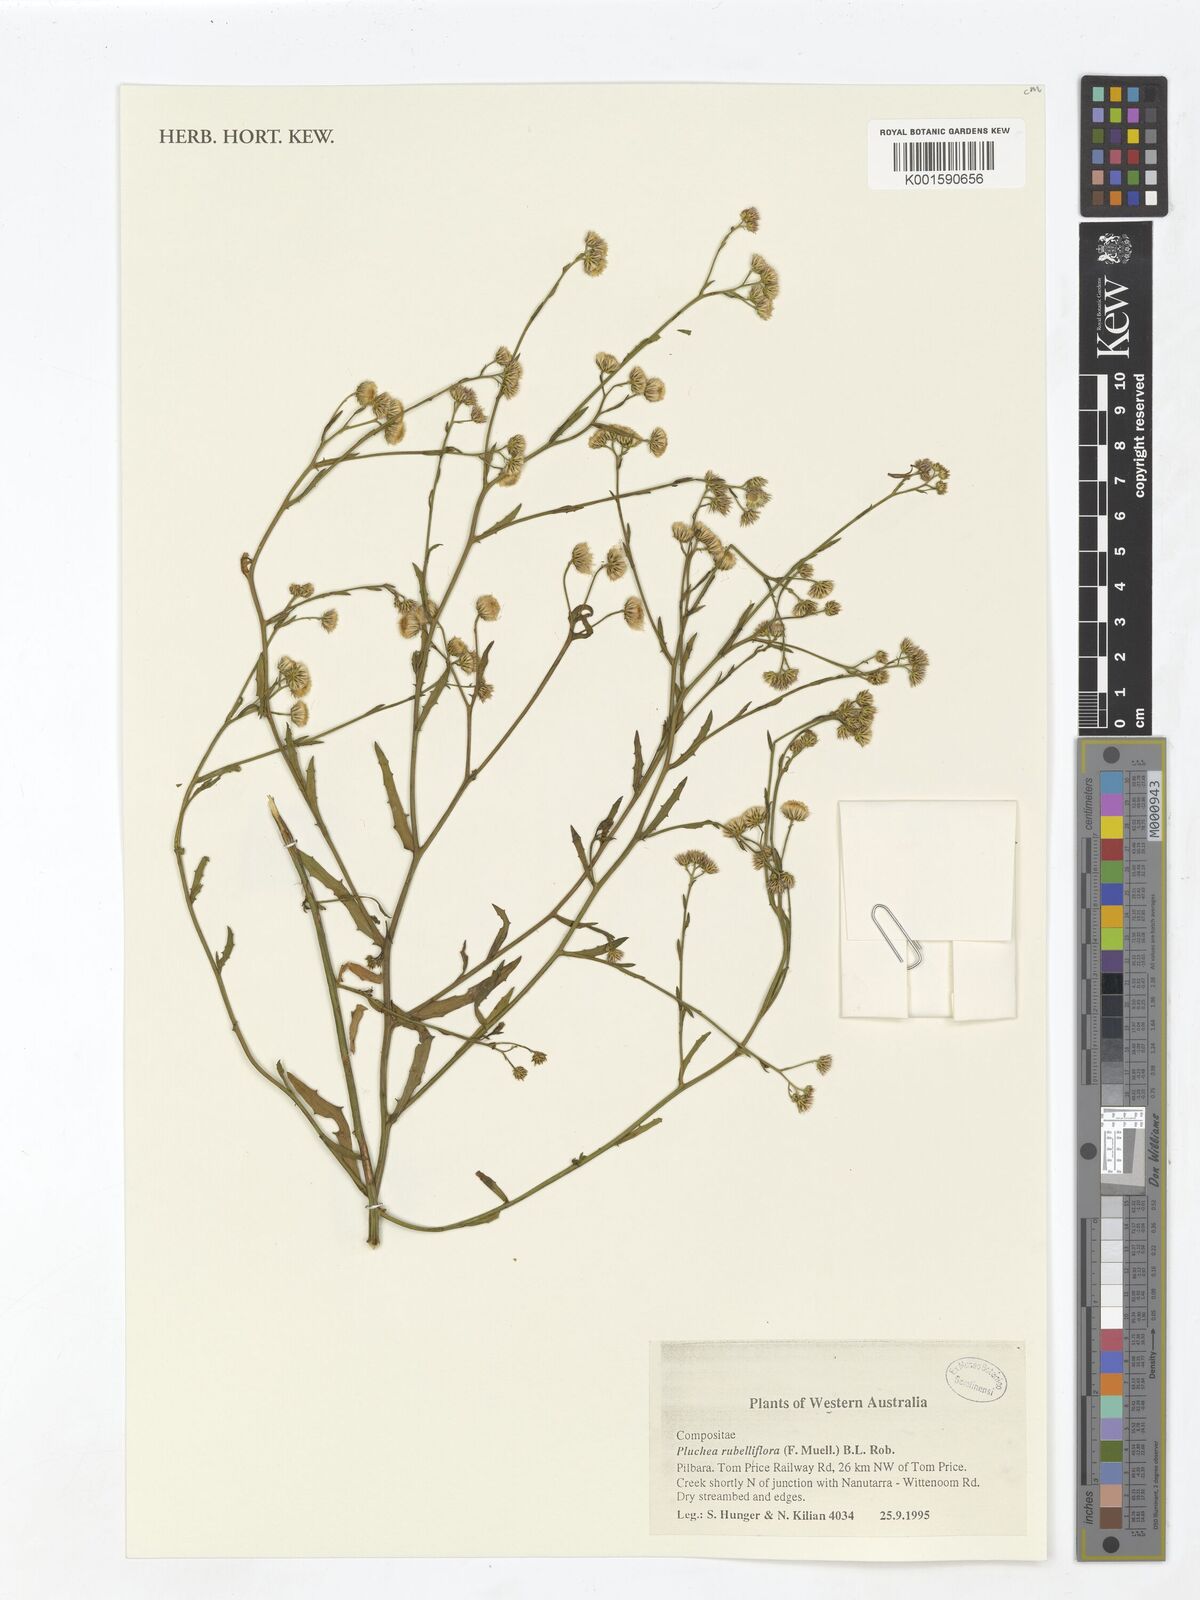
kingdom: Plantae
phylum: Tracheophyta
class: Magnoliopsida
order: Asterales
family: Asteraceae
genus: Pluchea
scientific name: Pluchea rubelliflora
